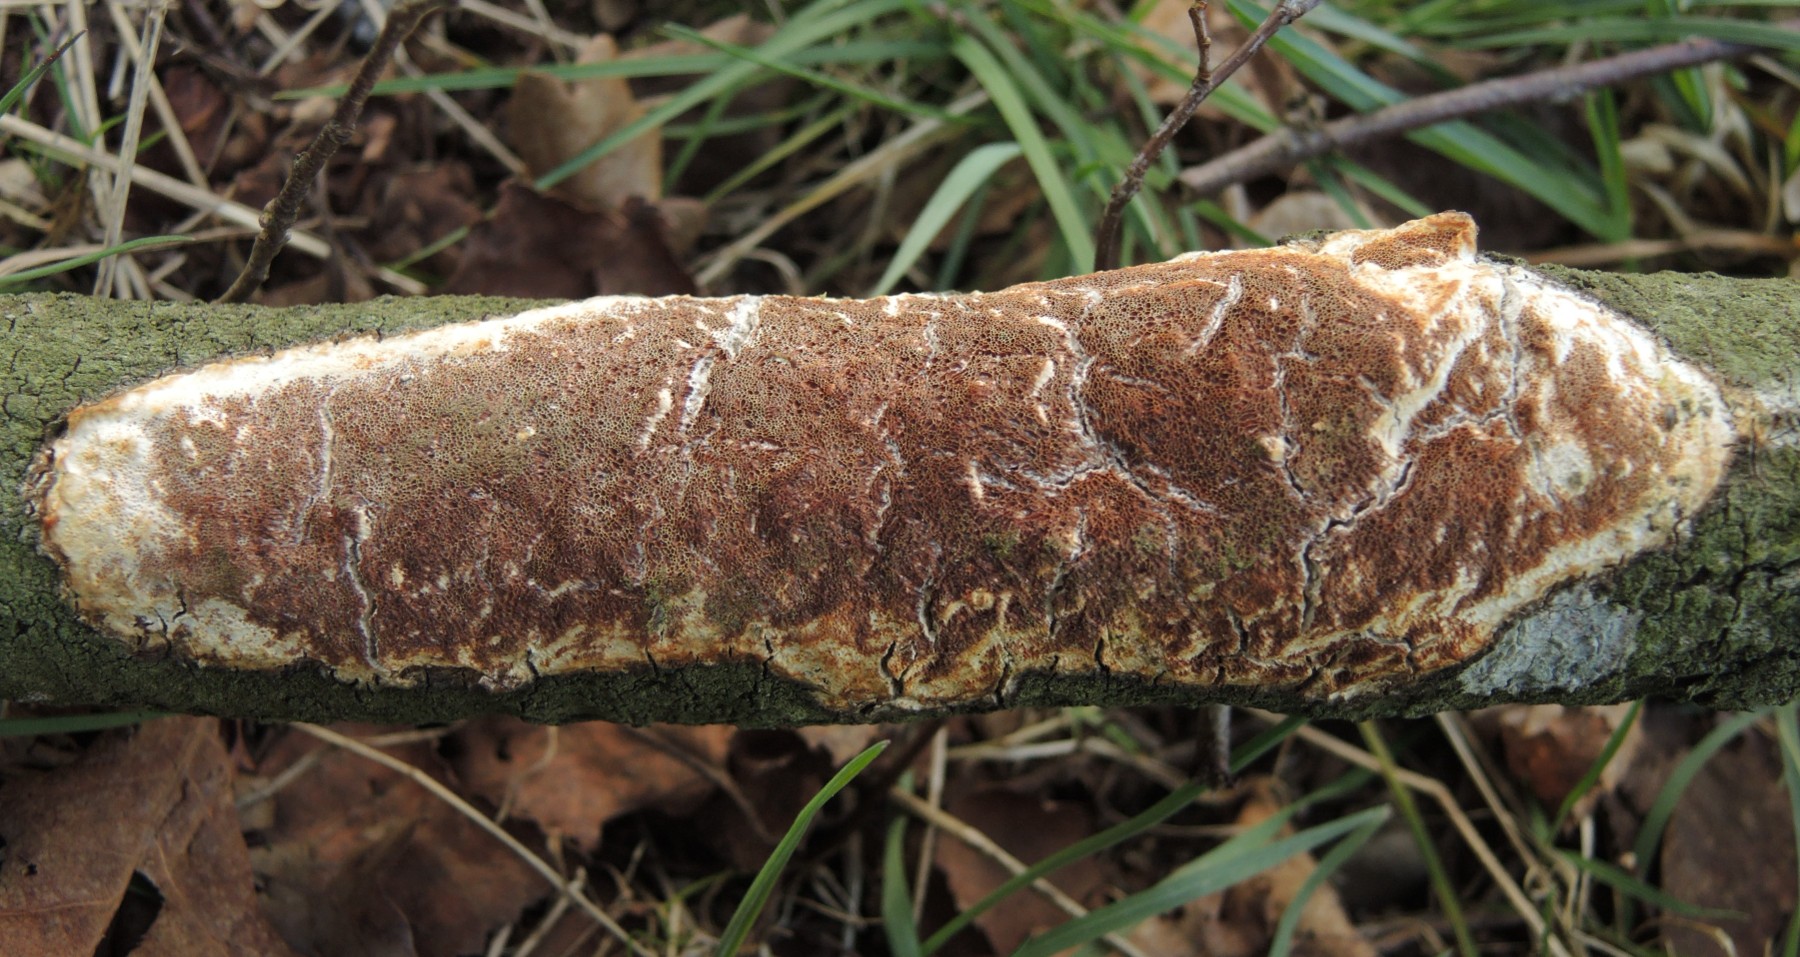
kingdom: Fungi
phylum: Basidiomycota
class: Agaricomycetes
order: Polyporales
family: Irpicaceae
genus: Resiniporus
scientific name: Resiniporus resinascens
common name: trist pastelporesvamp
